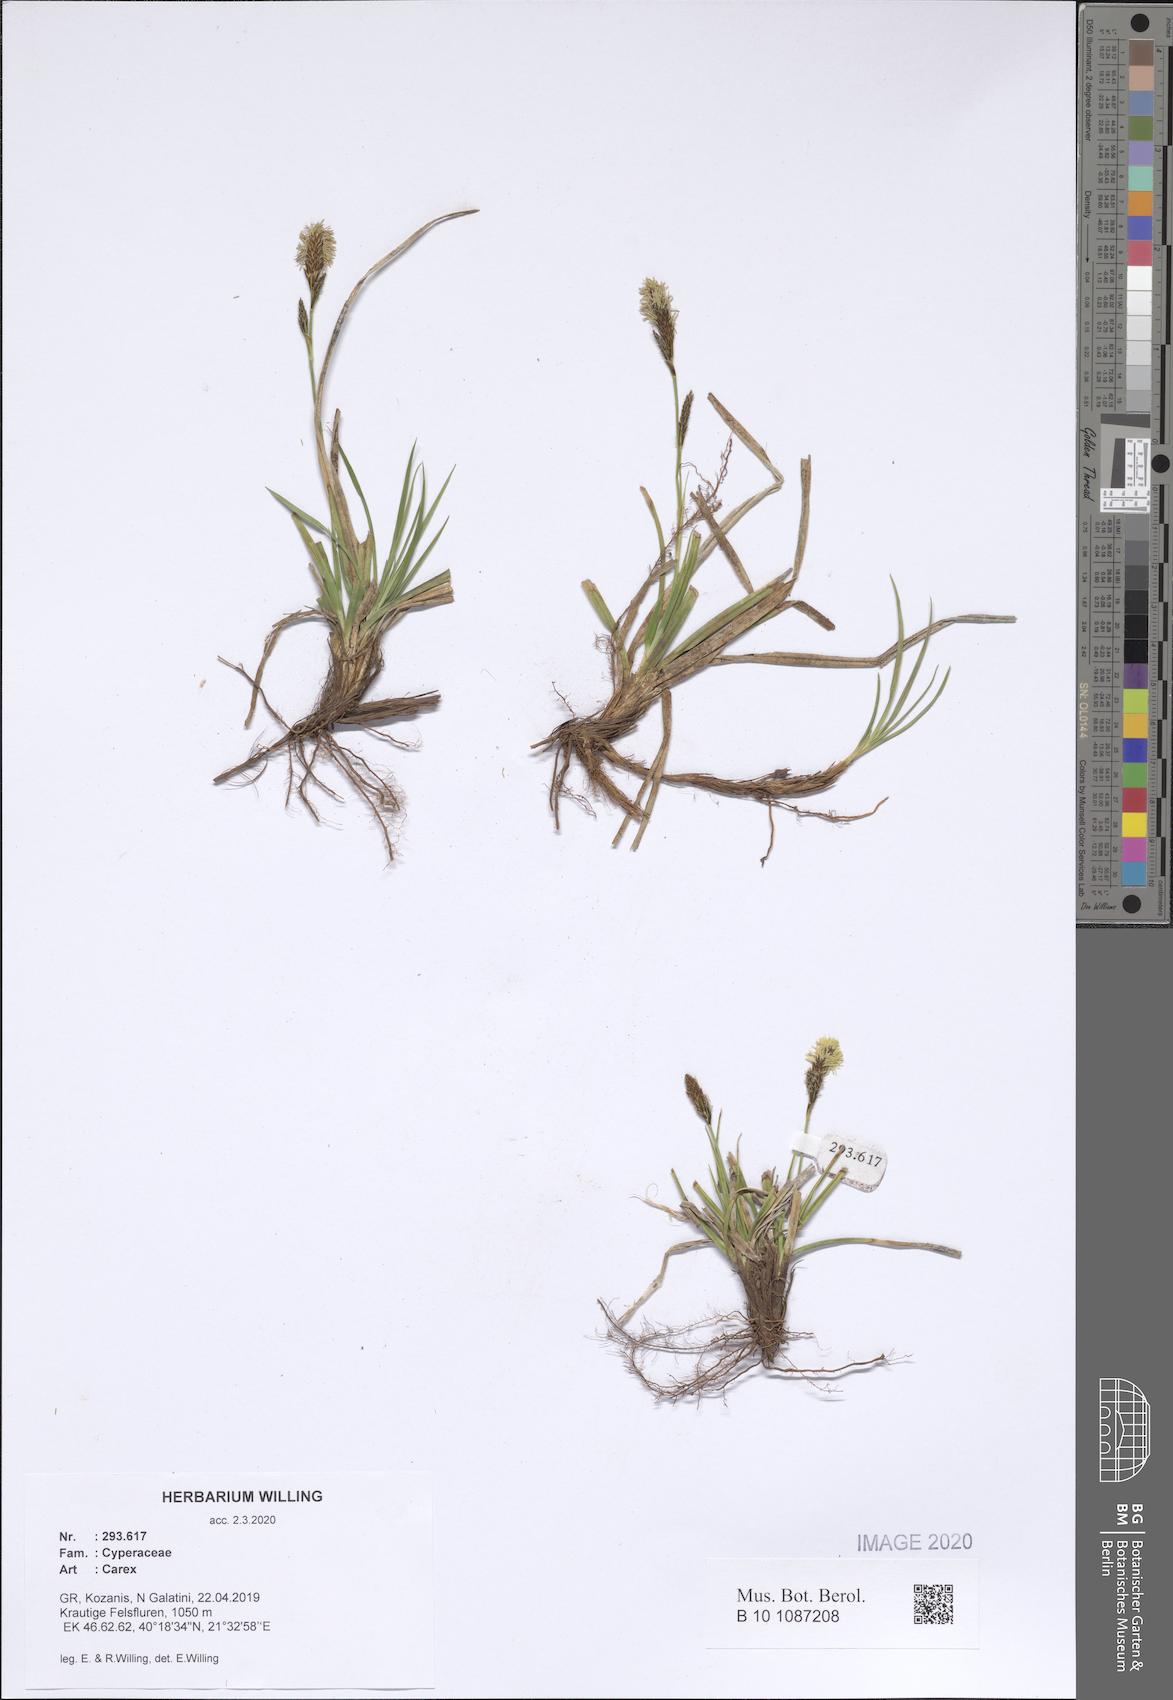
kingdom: Plantae
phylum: Tracheophyta
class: Liliopsida
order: Poales
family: Cyperaceae
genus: Carex
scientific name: Carex
